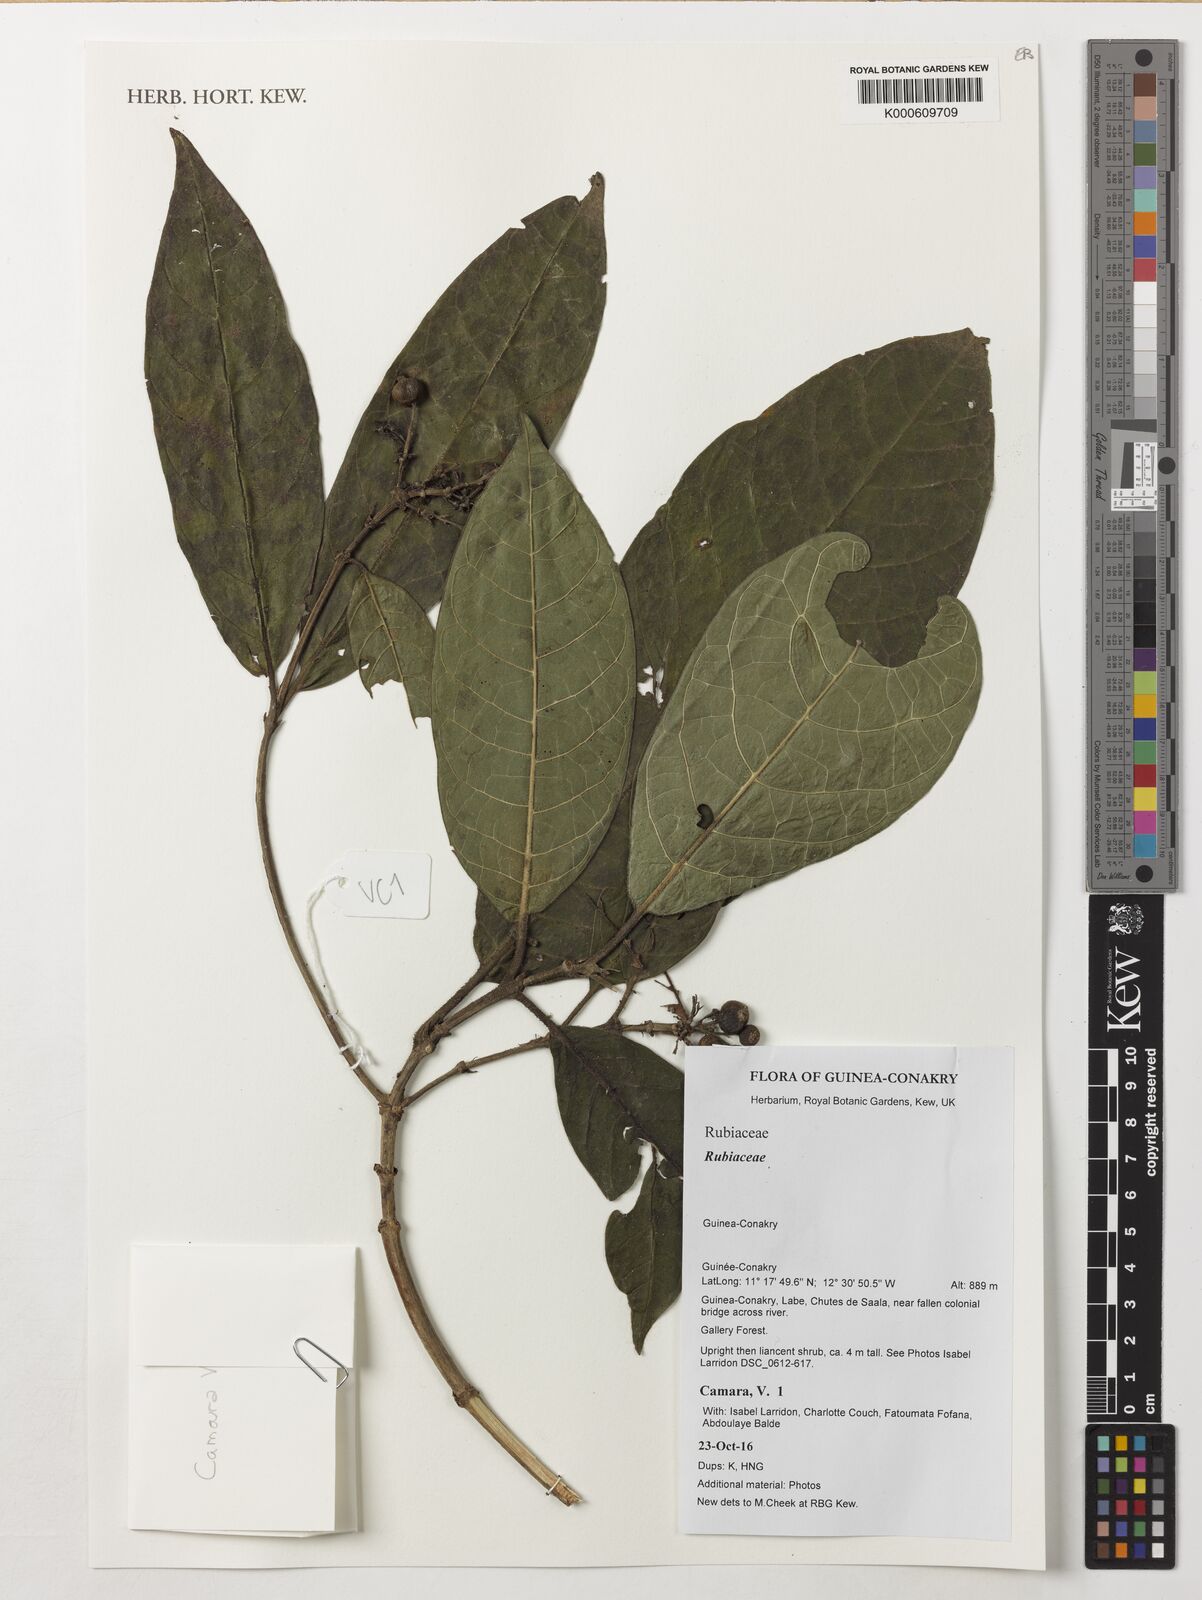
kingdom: Plantae
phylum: Tracheophyta
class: Magnoliopsida
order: Gentianales
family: Rubiaceae
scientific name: Rubiaceae
